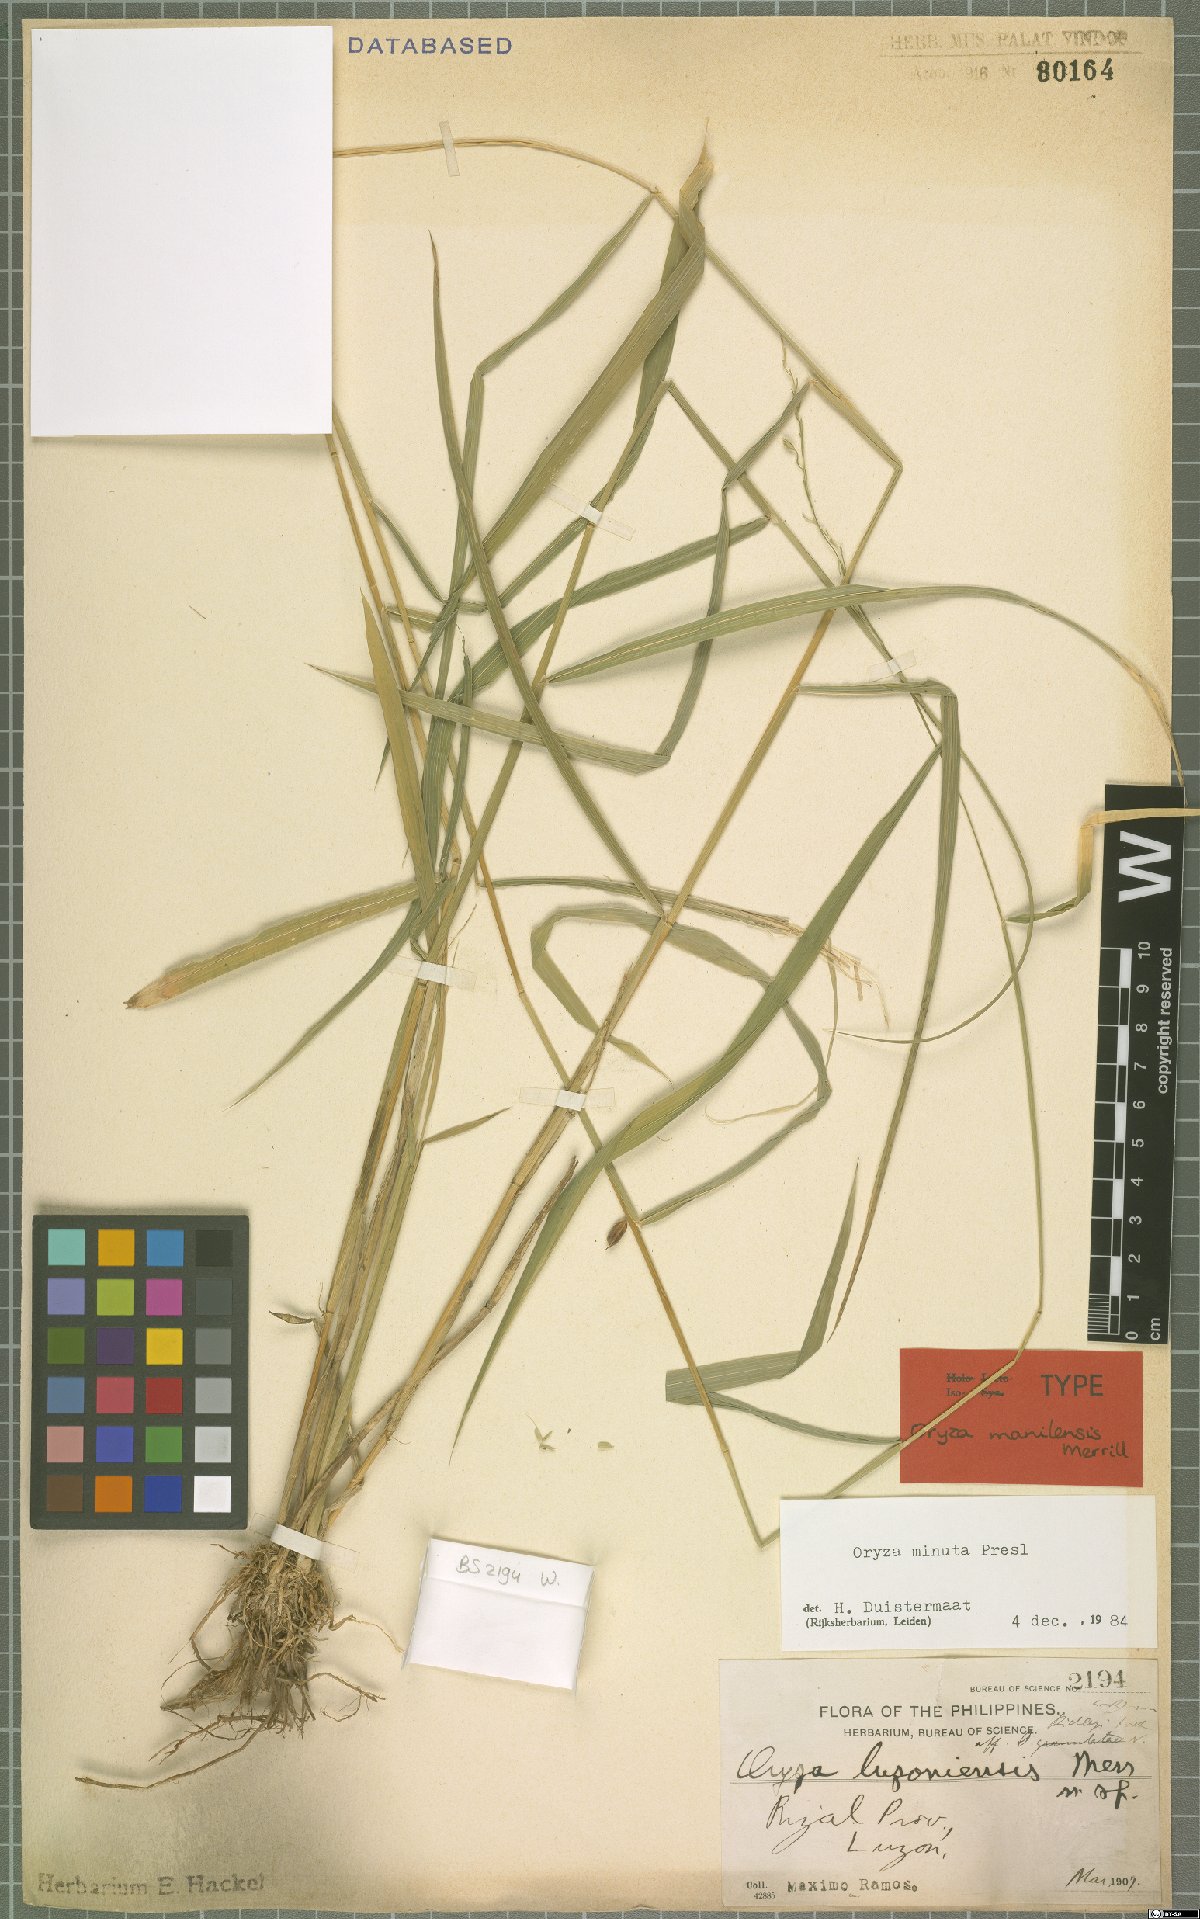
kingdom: Plantae
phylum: Tracheophyta
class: Liliopsida
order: Poales
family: Poaceae
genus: Oryza
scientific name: Oryza minuta
